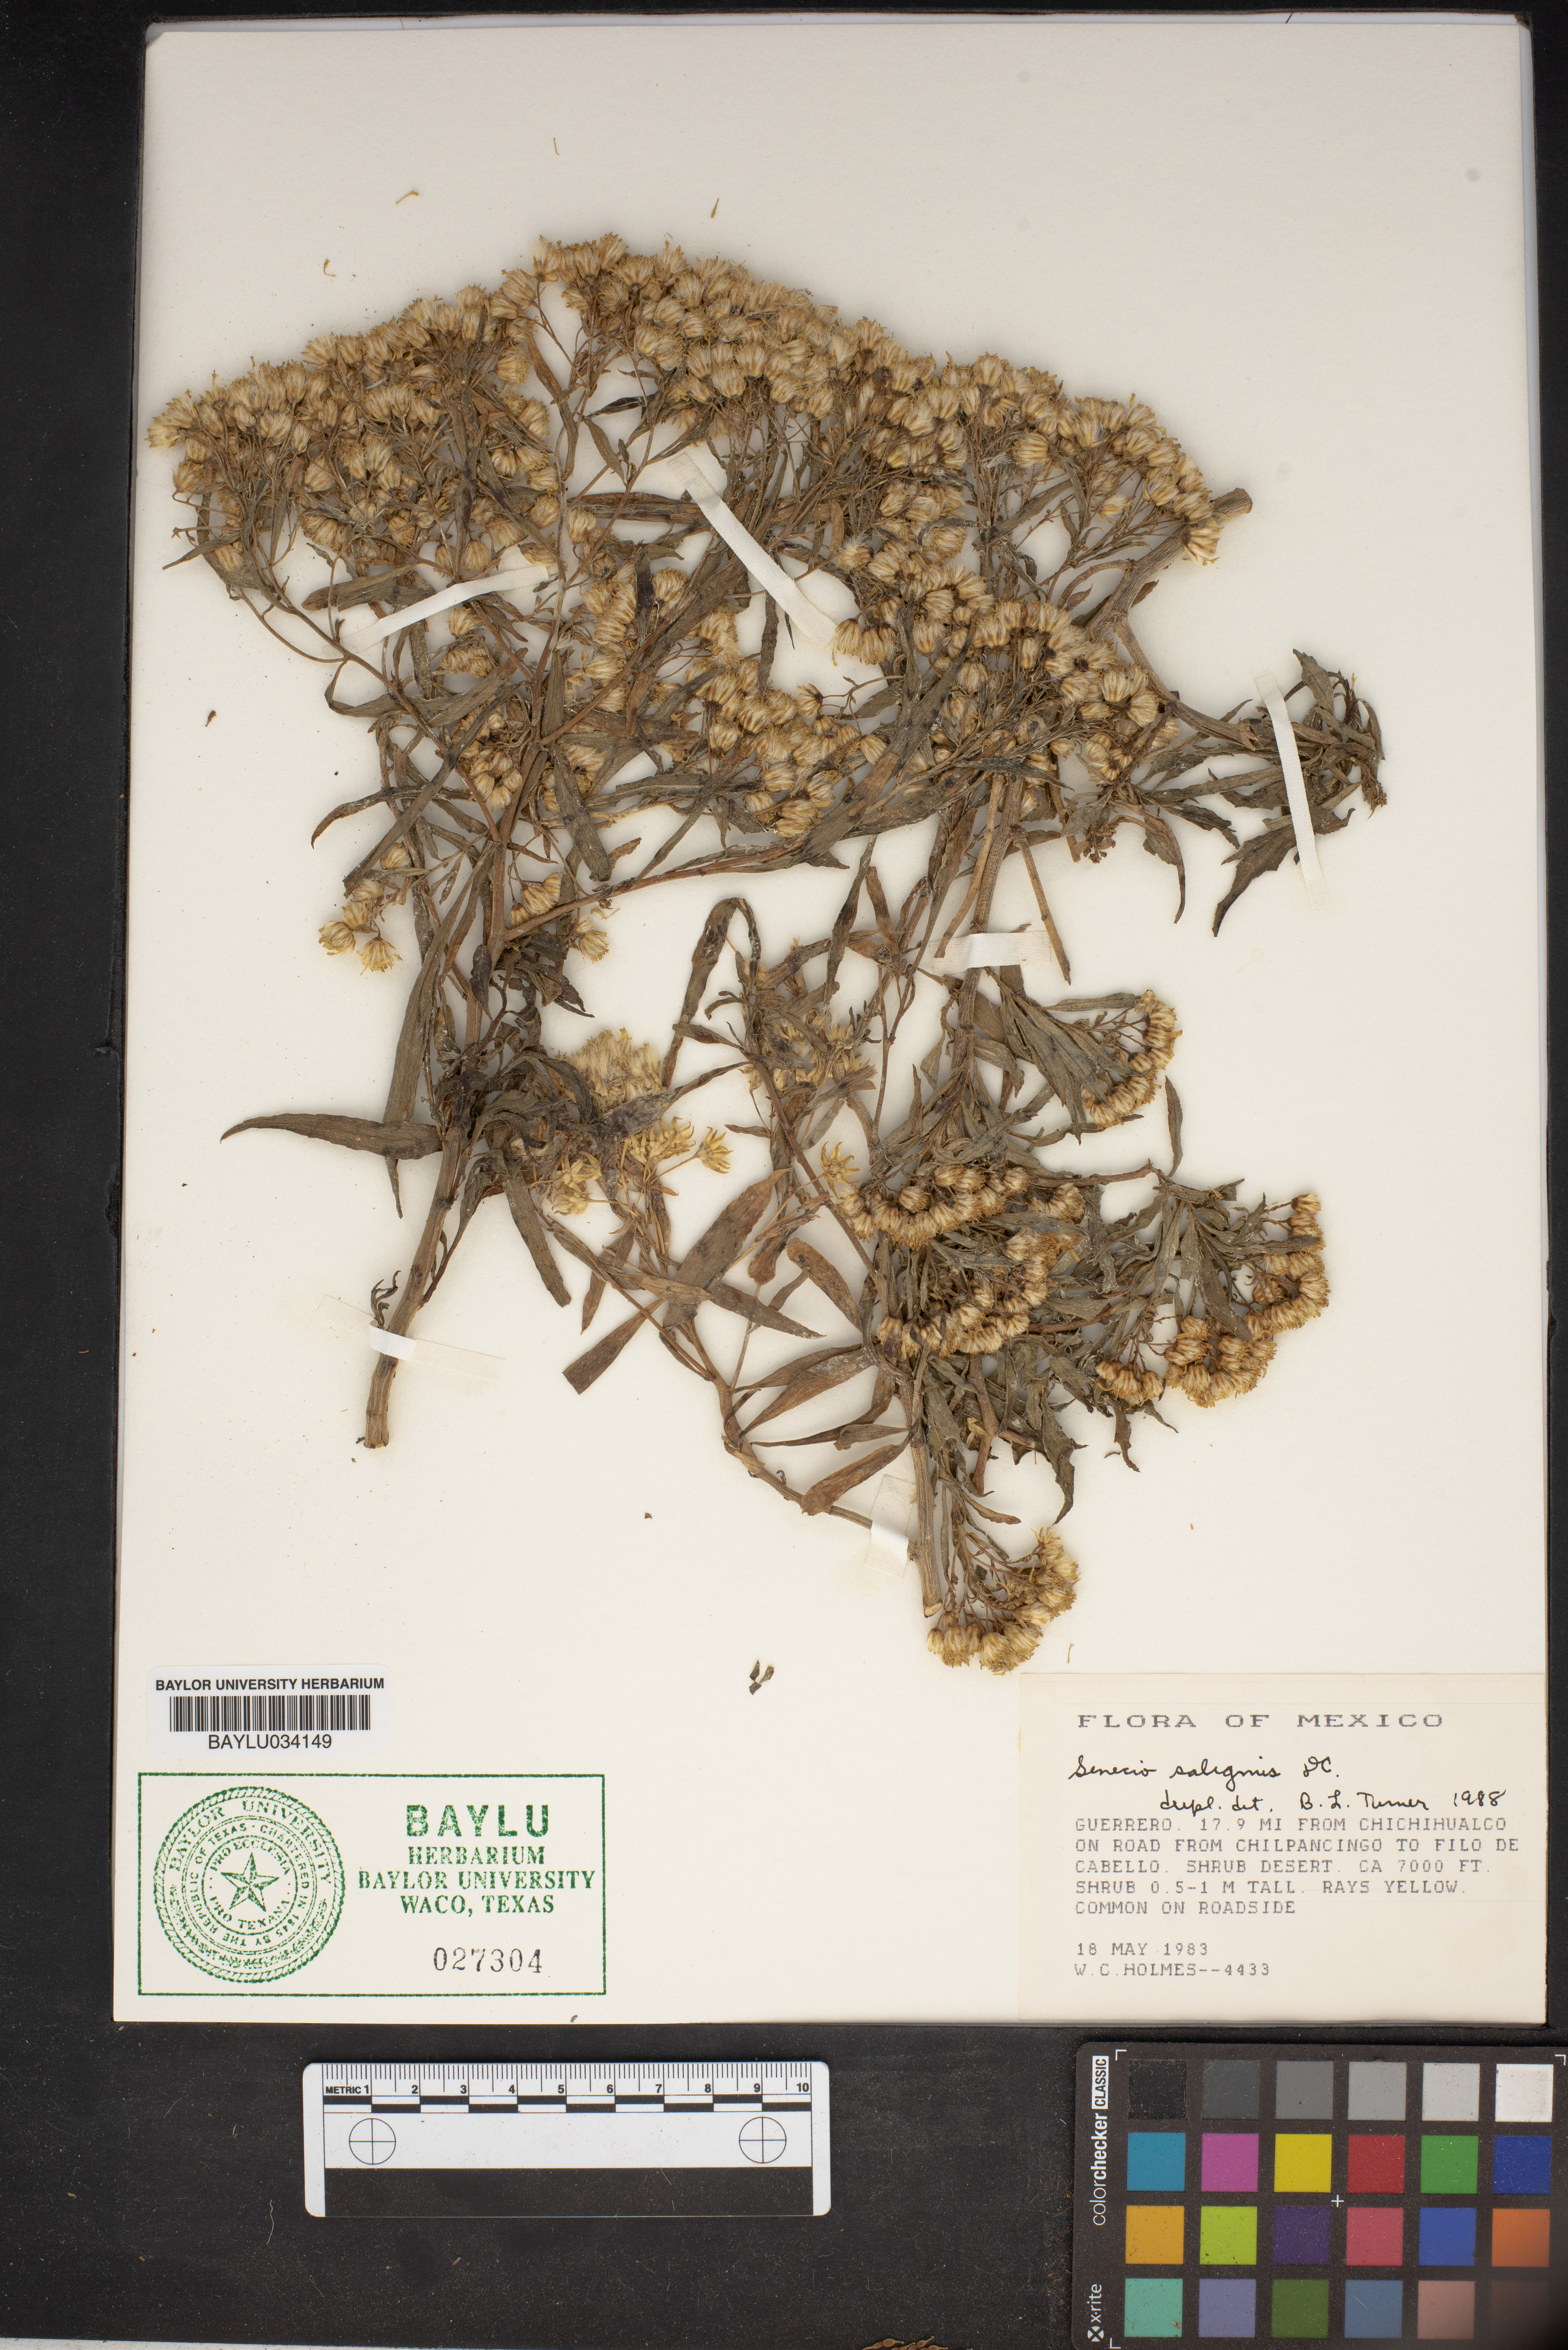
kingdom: Plantae
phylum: Tracheophyta
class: Magnoliopsida
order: Asterales
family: Asteraceae
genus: Barkleyanthus
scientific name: Barkleyanthus salicifolius
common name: Willow ragwort
